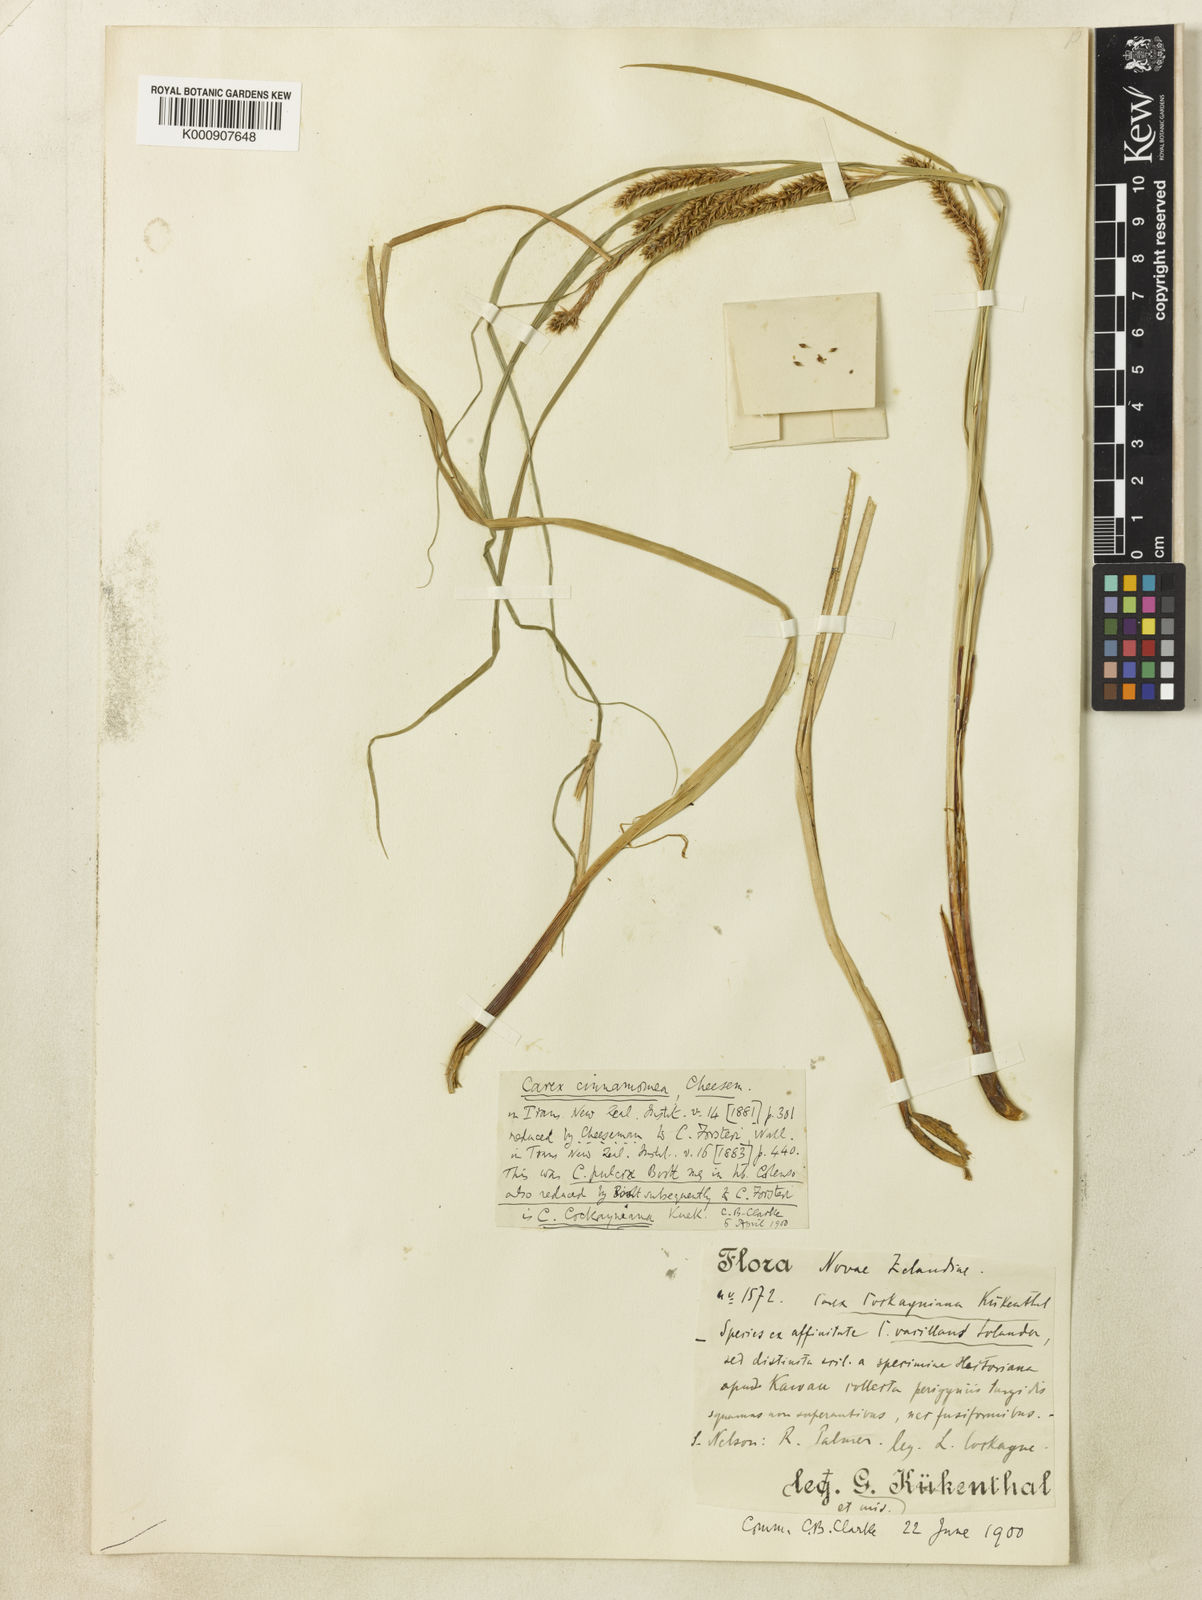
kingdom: Plantae
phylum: Tracheophyta
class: Liliopsida
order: Poales
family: Cyperaceae
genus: Carex
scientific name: Carex forsteri
